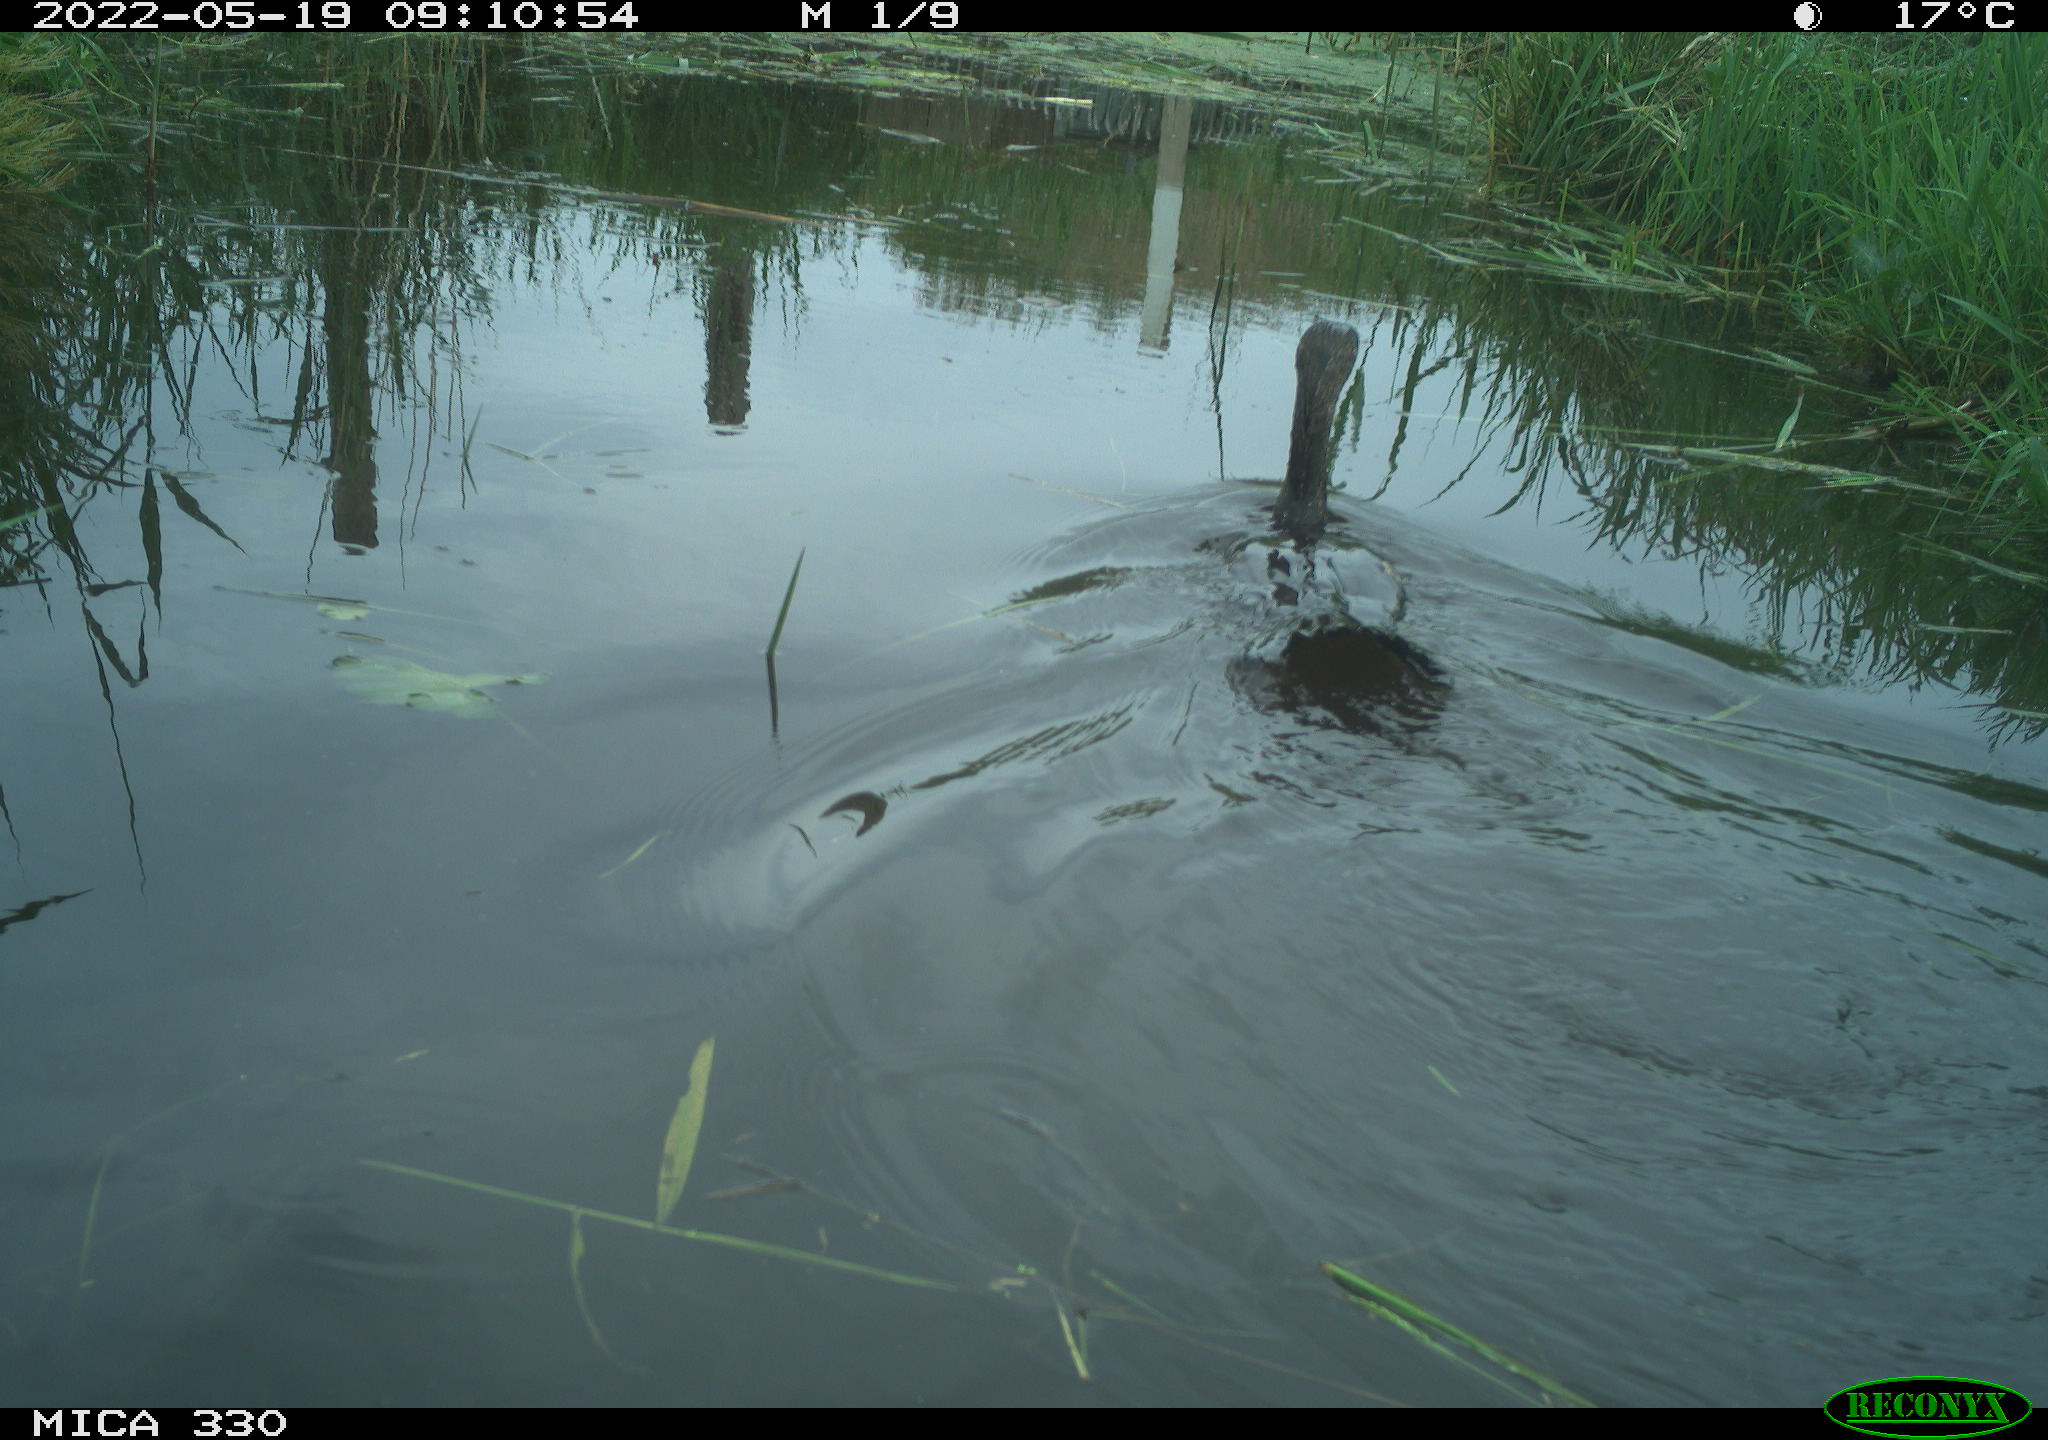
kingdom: Animalia
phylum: Chordata
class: Aves
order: Suliformes
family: Phalacrocoracidae
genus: Phalacrocorax
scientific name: Phalacrocorax carbo
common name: Great cormorant
